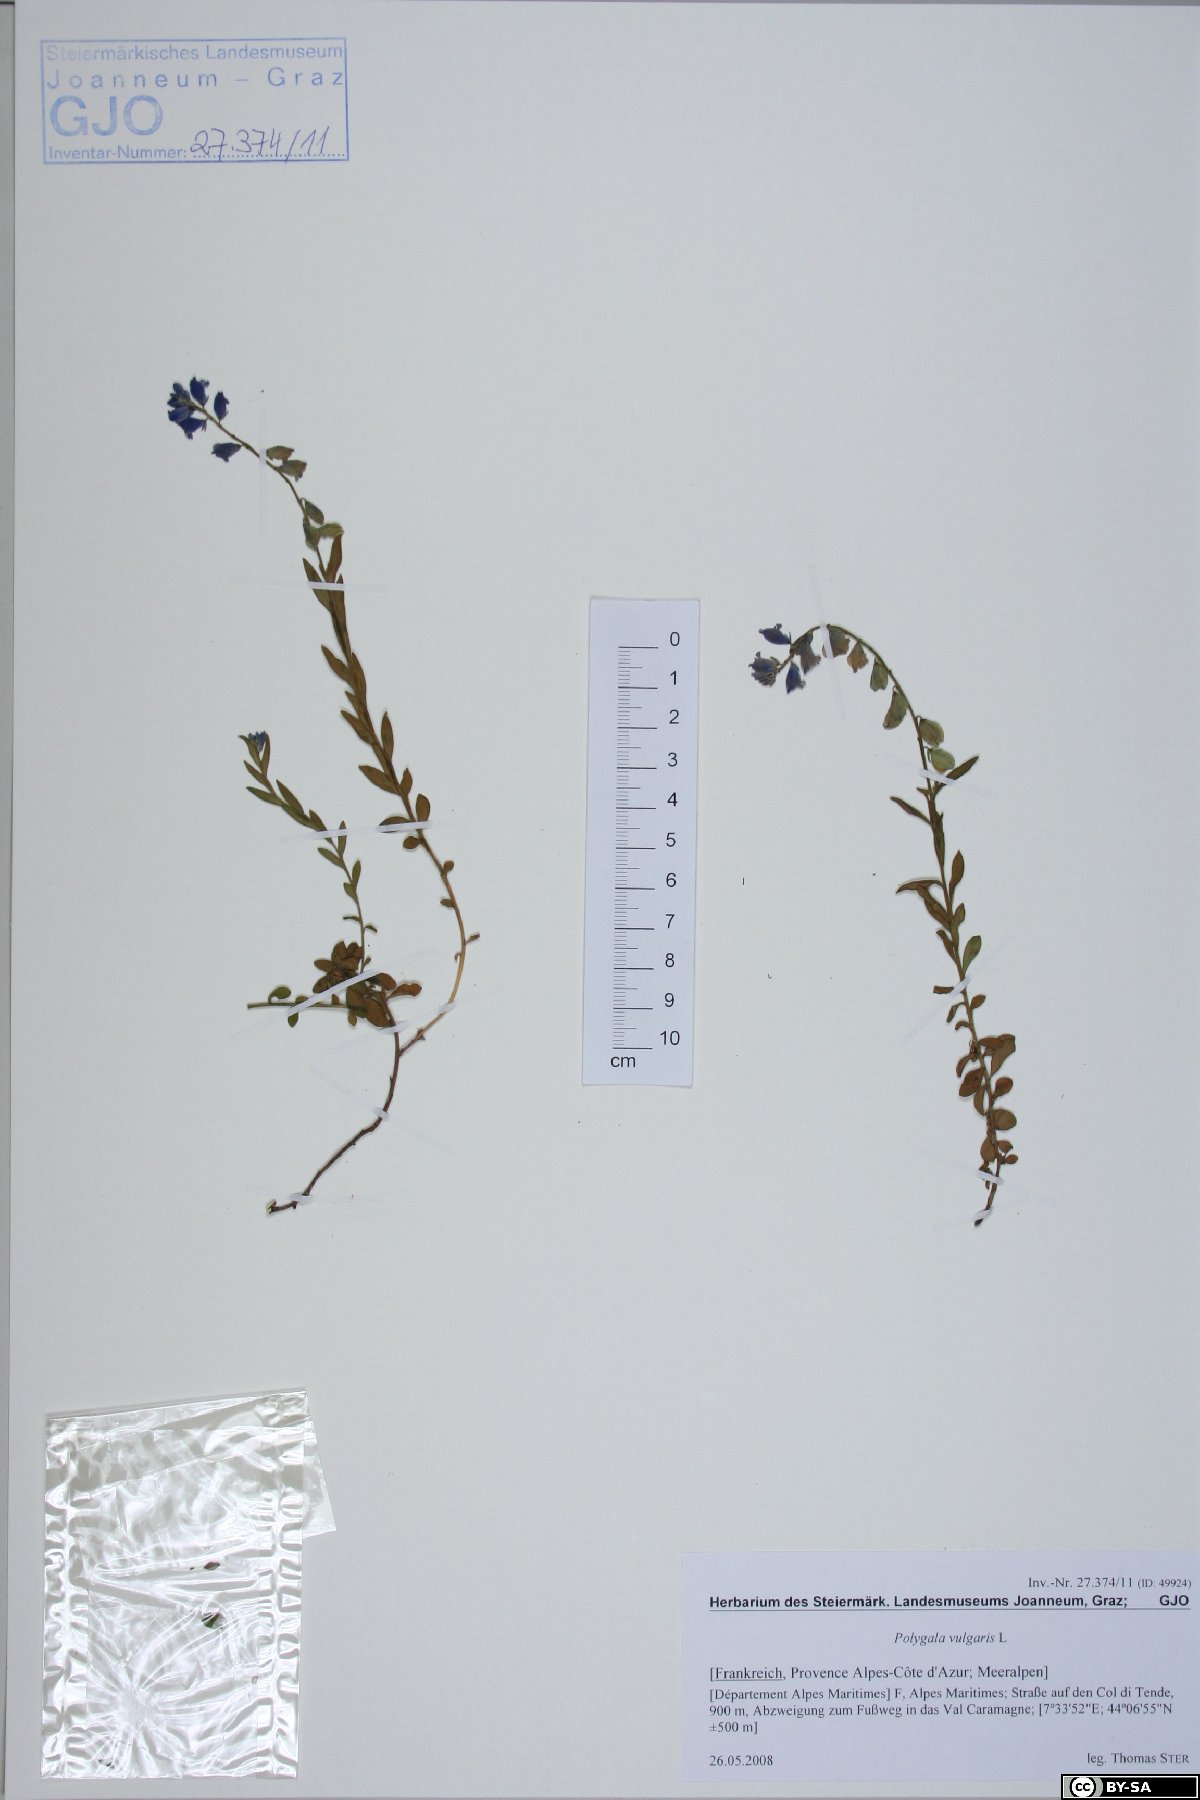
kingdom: Plantae
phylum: Tracheophyta
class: Magnoliopsida
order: Fabales
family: Polygalaceae
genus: Polygala
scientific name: Polygala vulgaris
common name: Common milkwort
